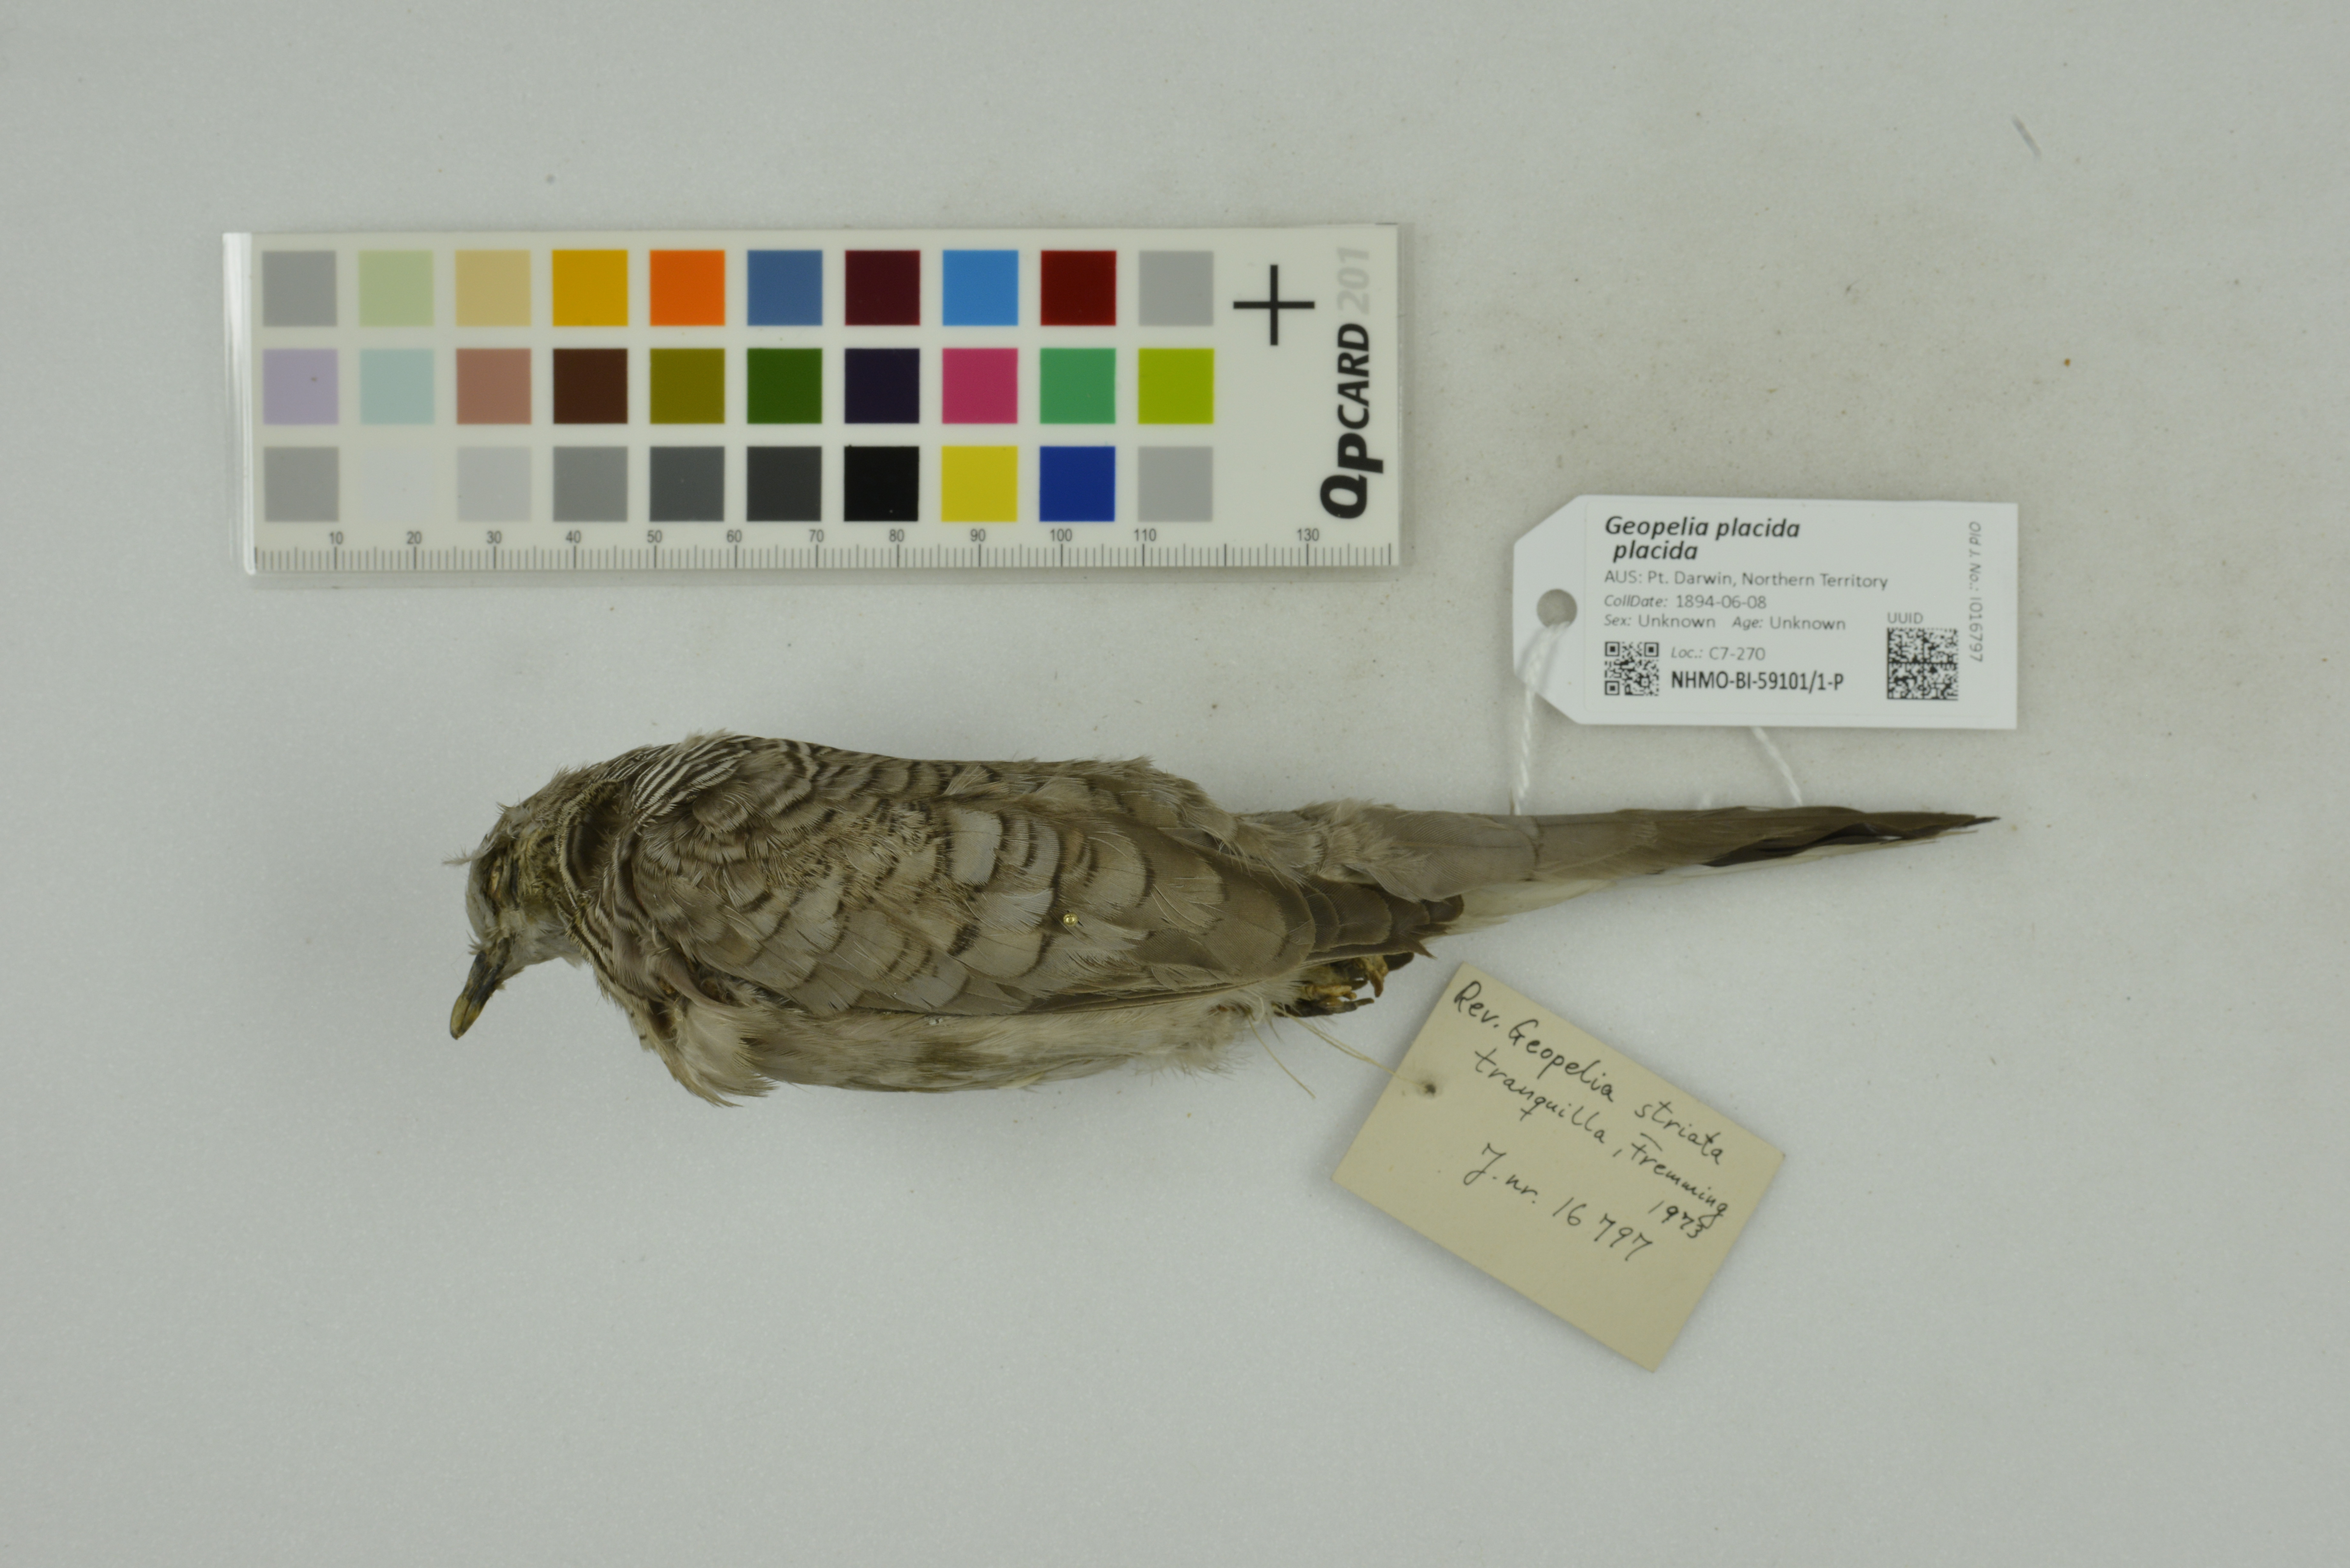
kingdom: Animalia
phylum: Chordata
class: Aves
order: Columbiformes
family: Columbidae
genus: Geopelia
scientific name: Geopelia placida
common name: Peaceful dove
